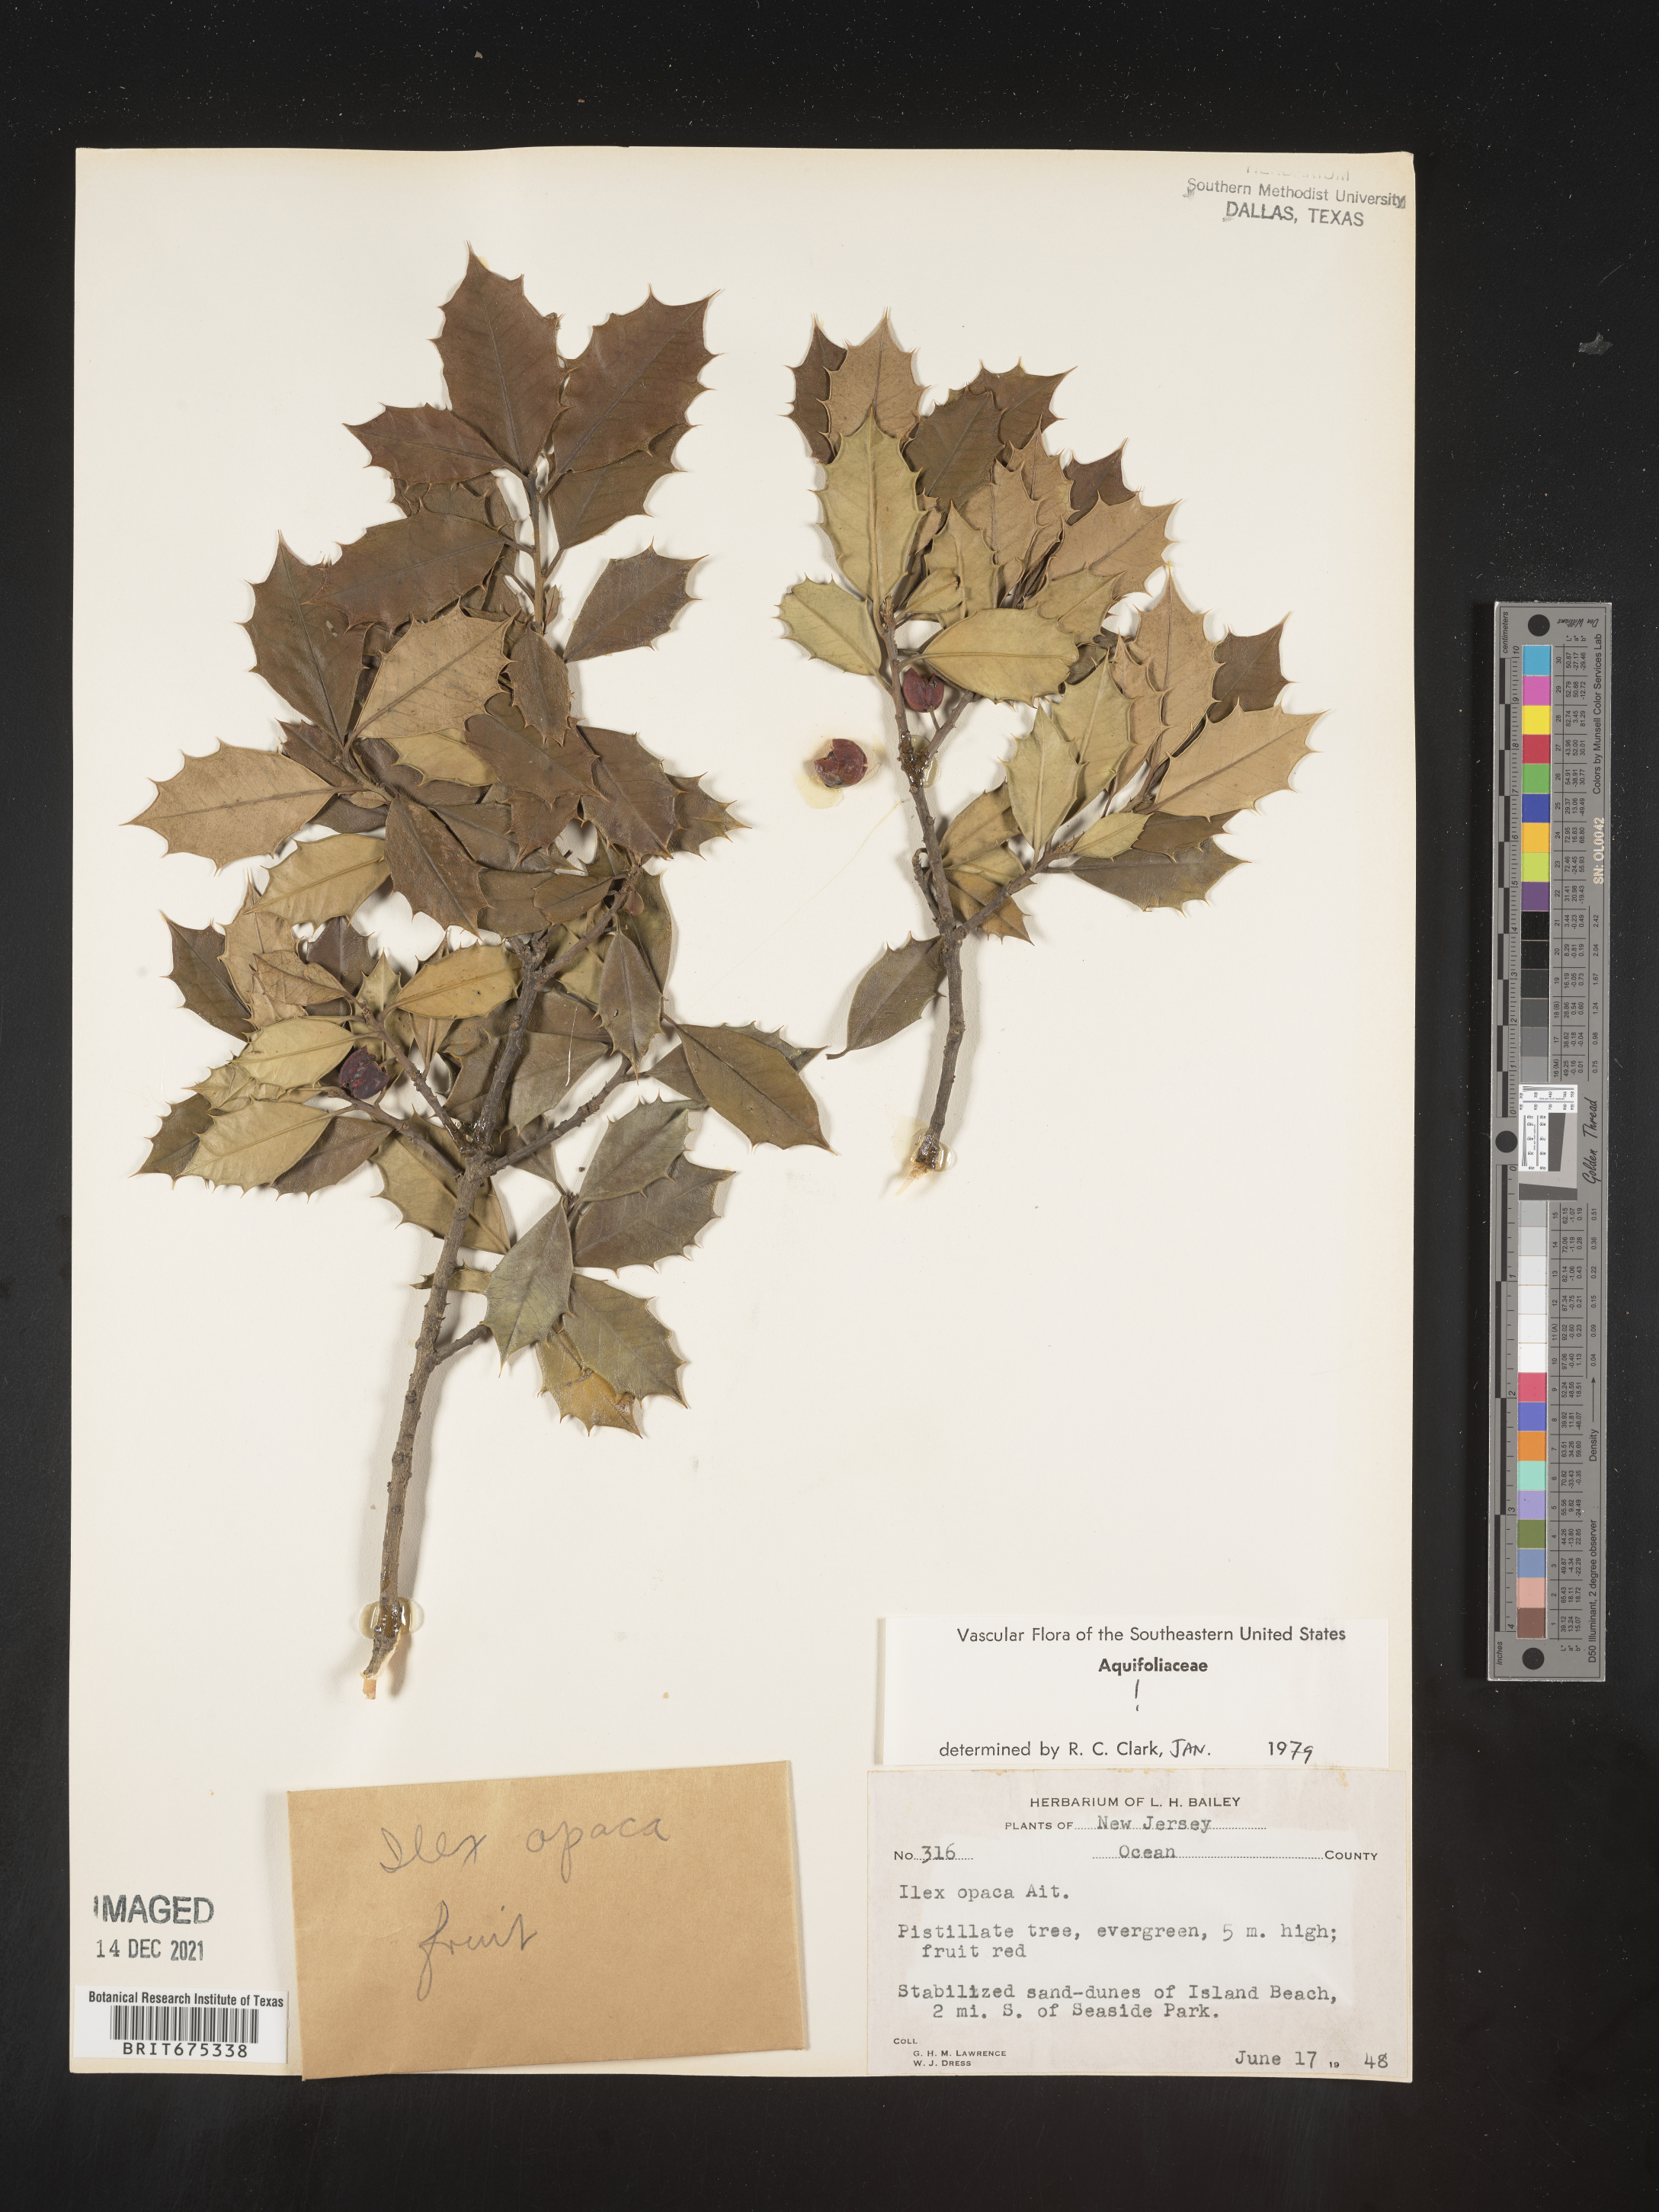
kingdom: Plantae
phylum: Tracheophyta
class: Magnoliopsida
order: Aquifoliales
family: Aquifoliaceae
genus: Ilex
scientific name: Ilex opaca
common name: American holly
